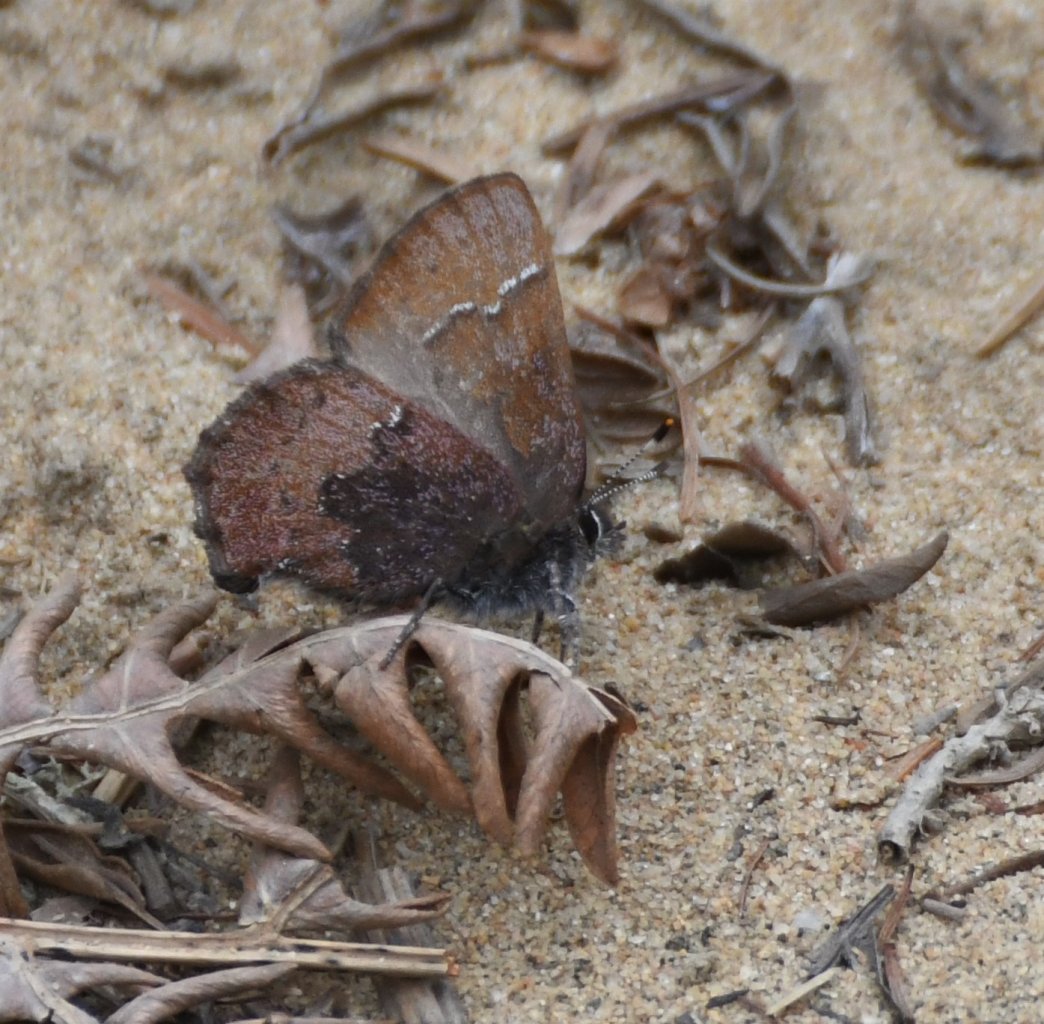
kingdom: Animalia
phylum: Arthropoda
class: Insecta
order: Lepidoptera
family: Lycaenidae
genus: Incisalia
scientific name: Incisalia irioides
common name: Brown Elfin
